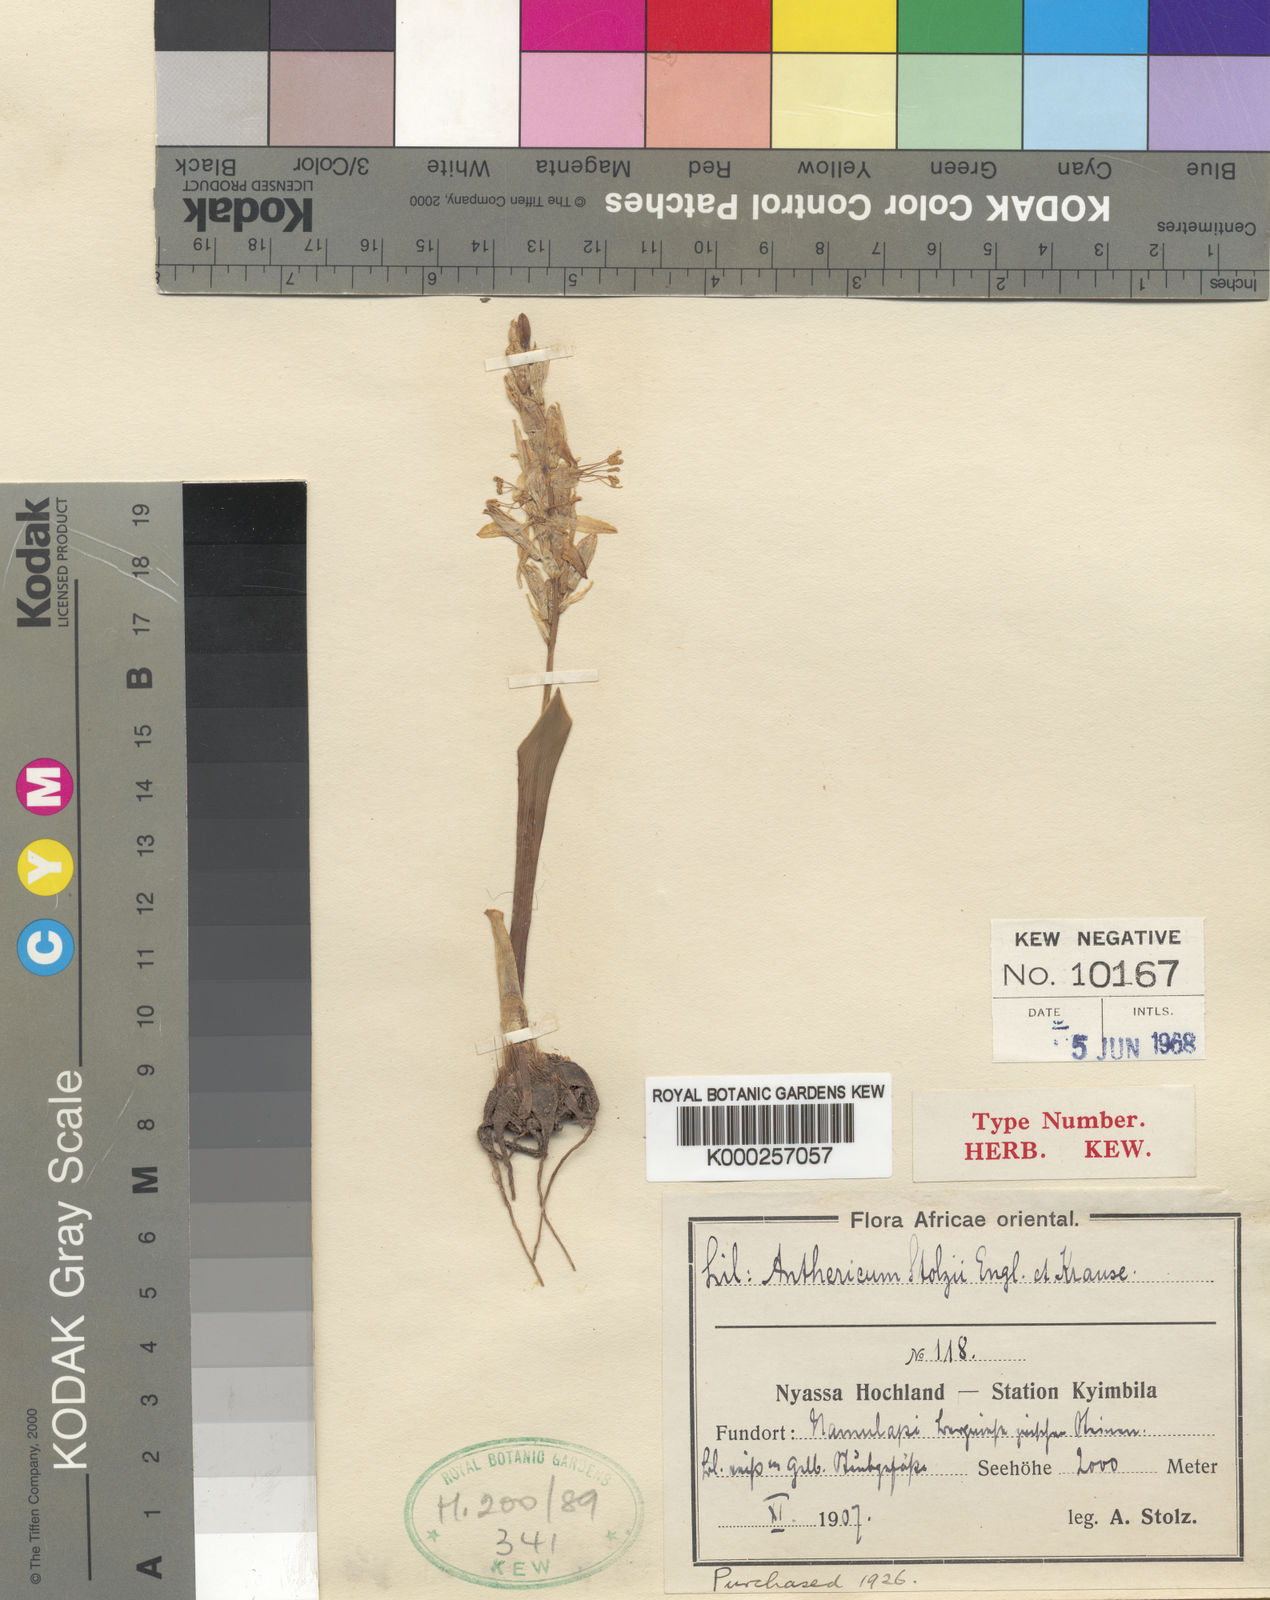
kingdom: Plantae
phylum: Tracheophyta
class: Liliopsida
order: Asparagales
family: Asparagaceae
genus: Chlorophytum
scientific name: Chlorophytum subpetiolatum
